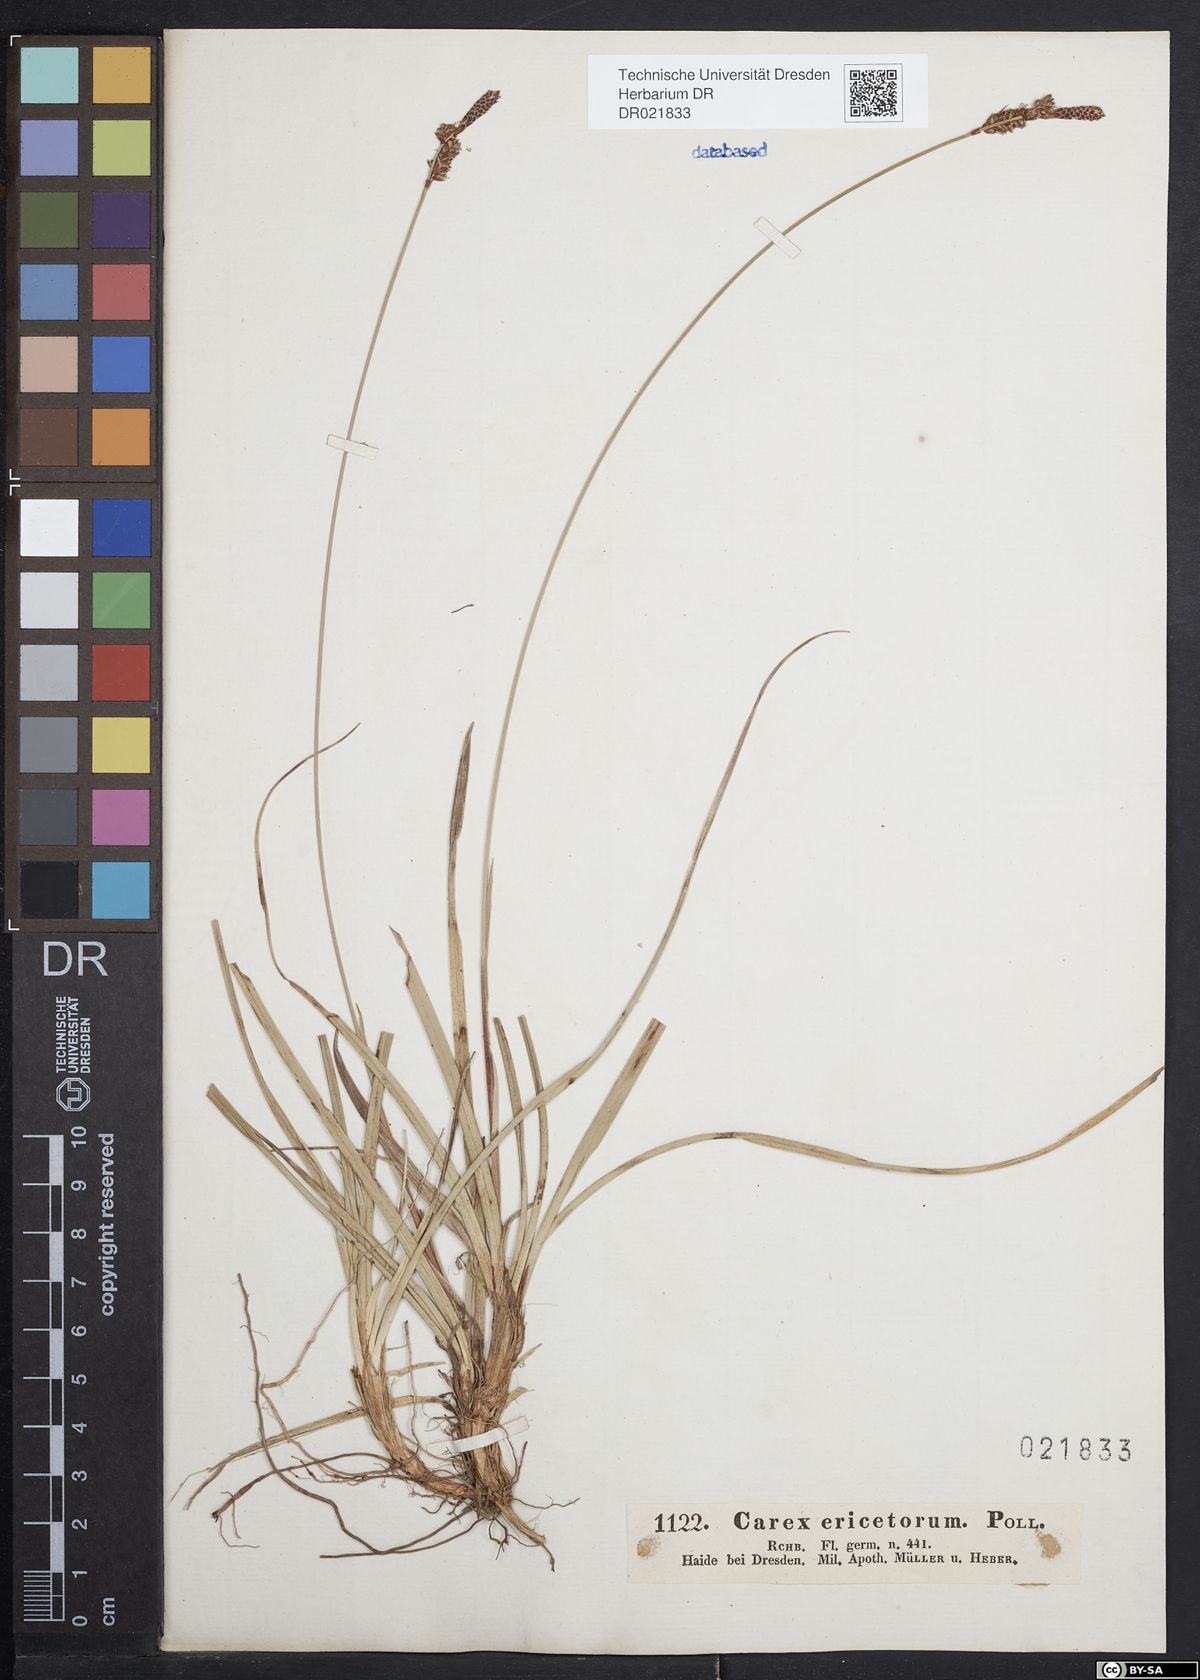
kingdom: Plantae
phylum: Tracheophyta
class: Liliopsida
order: Poales
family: Cyperaceae
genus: Carex
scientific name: Carex ericetorum
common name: Rare spring-sedge
